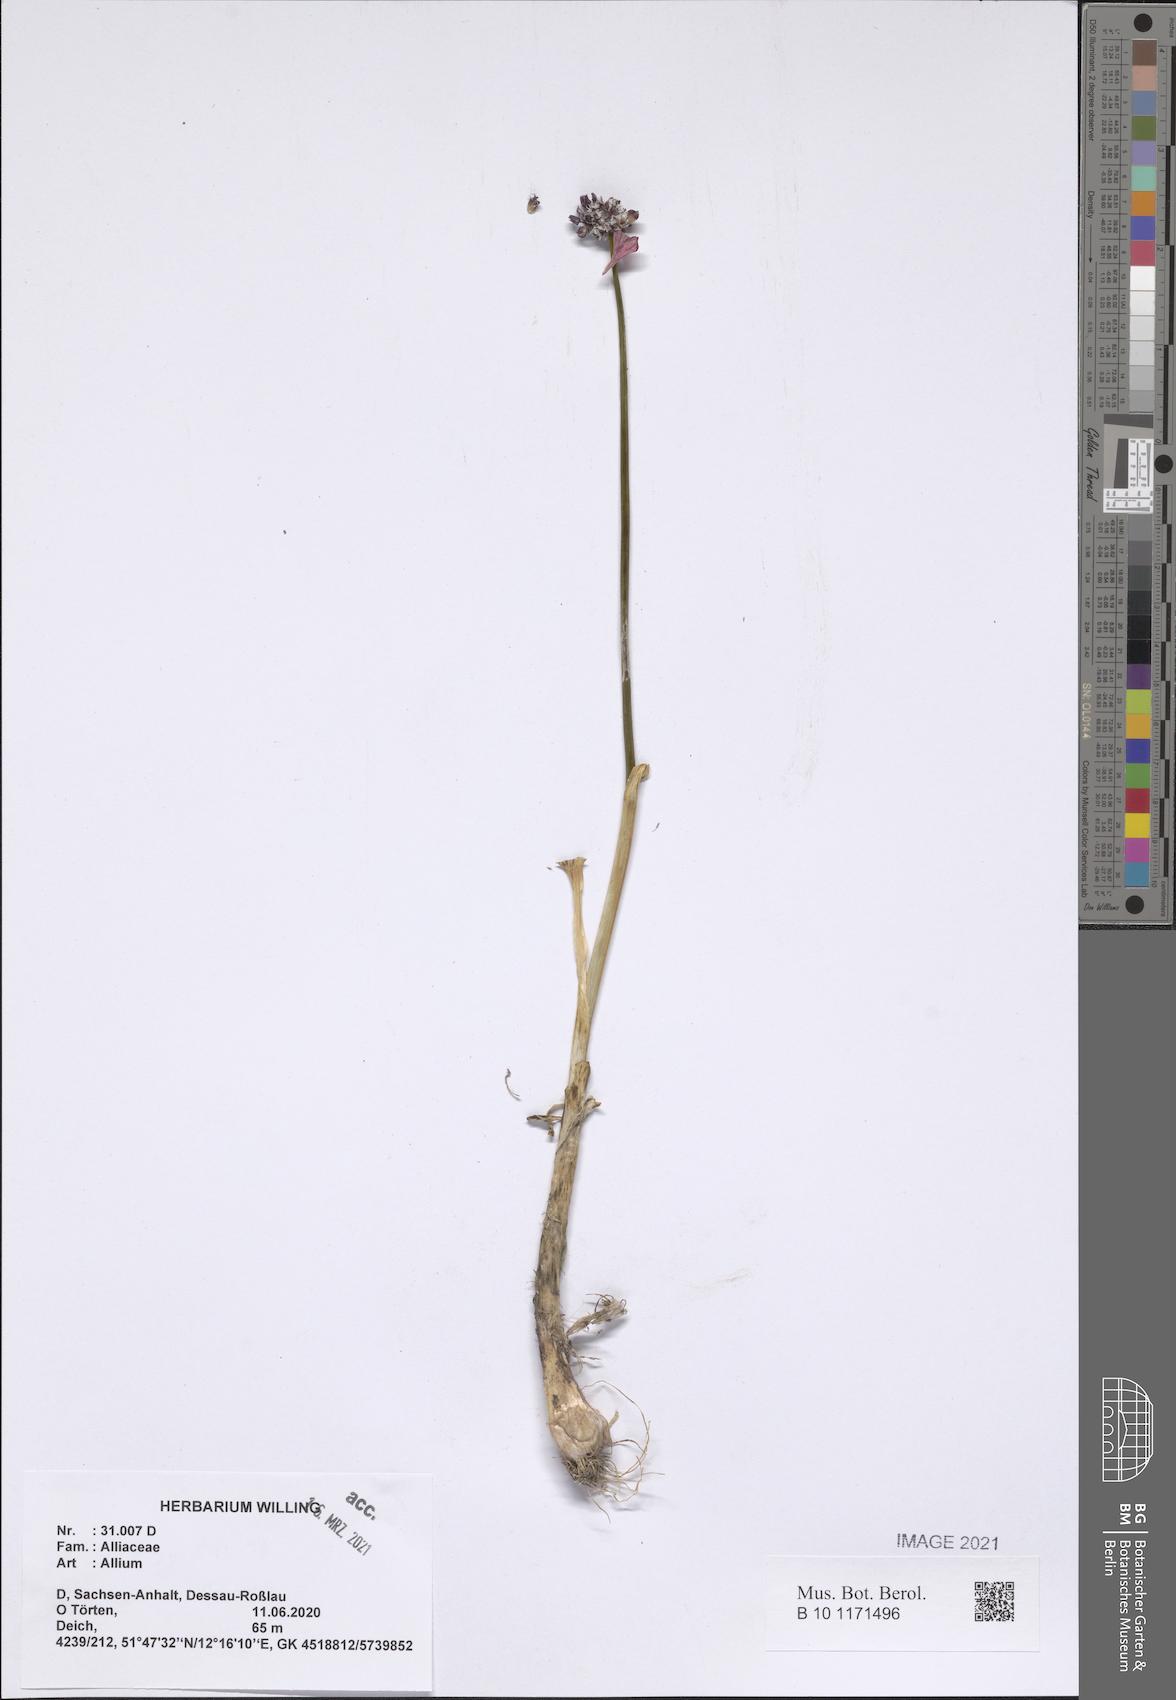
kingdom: Plantae
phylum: Tracheophyta
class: Liliopsida
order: Asparagales
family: Amaryllidaceae
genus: Allium
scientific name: Allium
